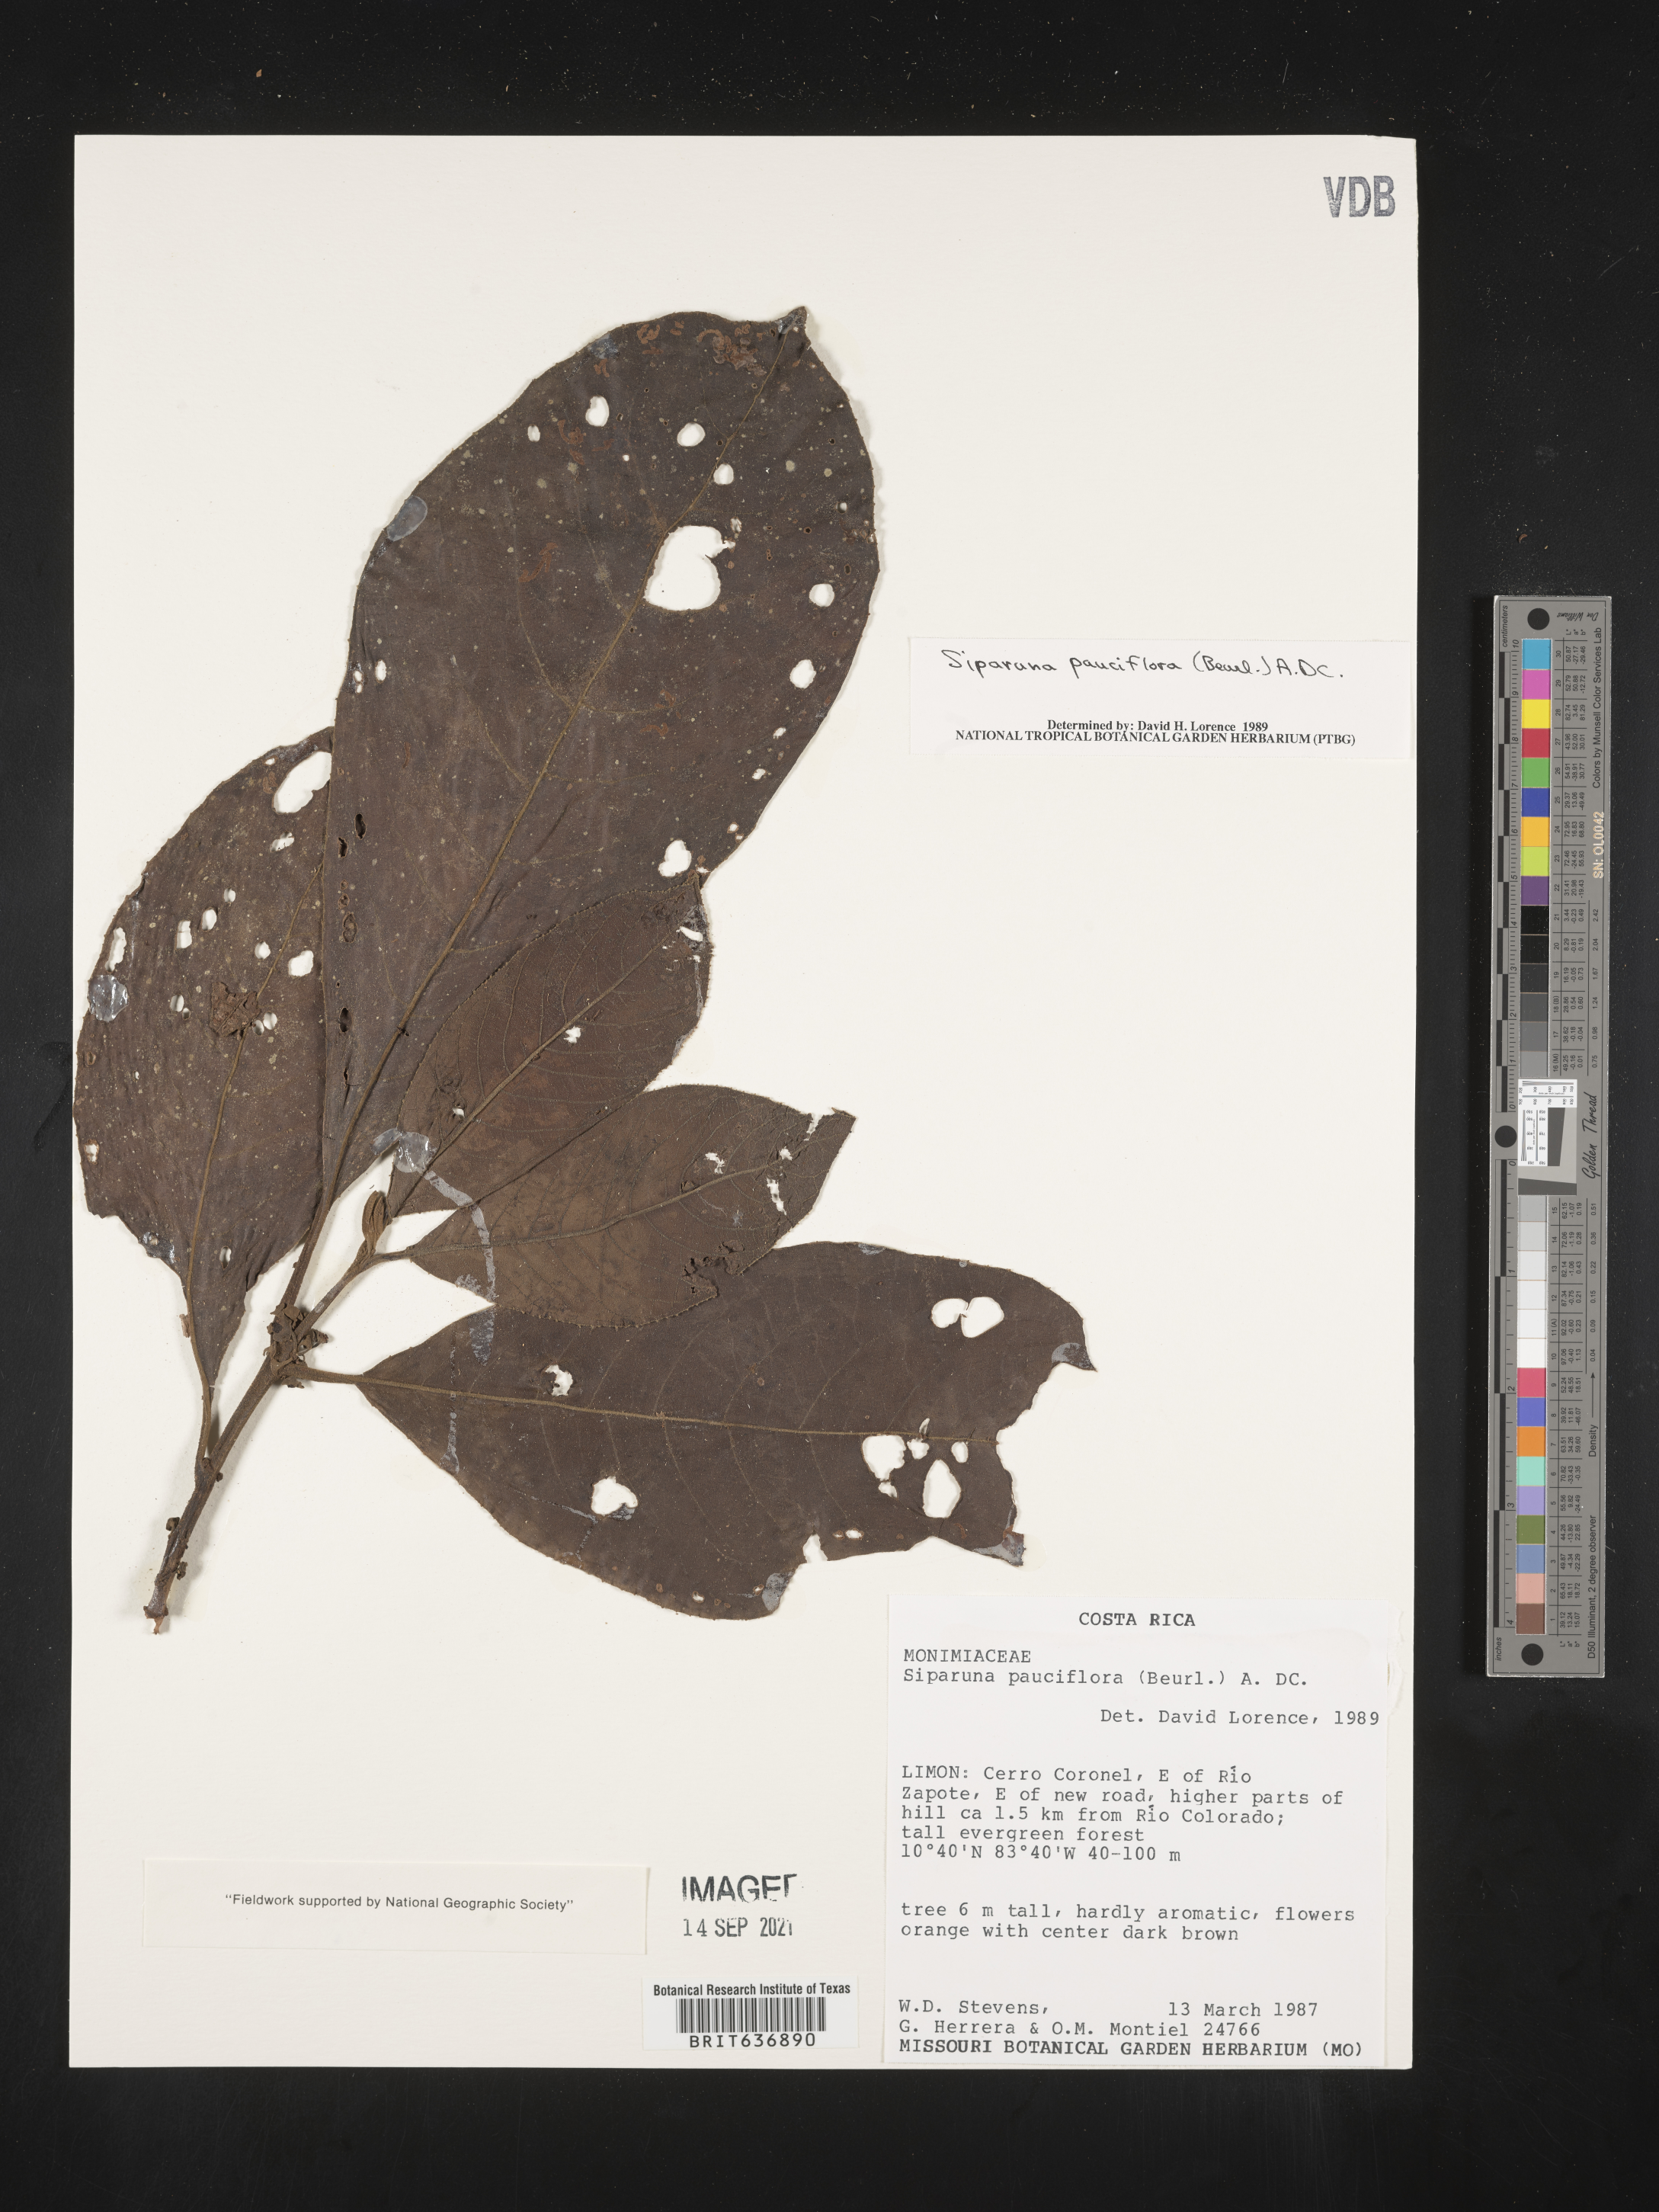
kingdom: Plantae
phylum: Tracheophyta
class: Magnoliopsida
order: Laurales
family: Siparunaceae
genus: Siparuna
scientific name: Siparuna
